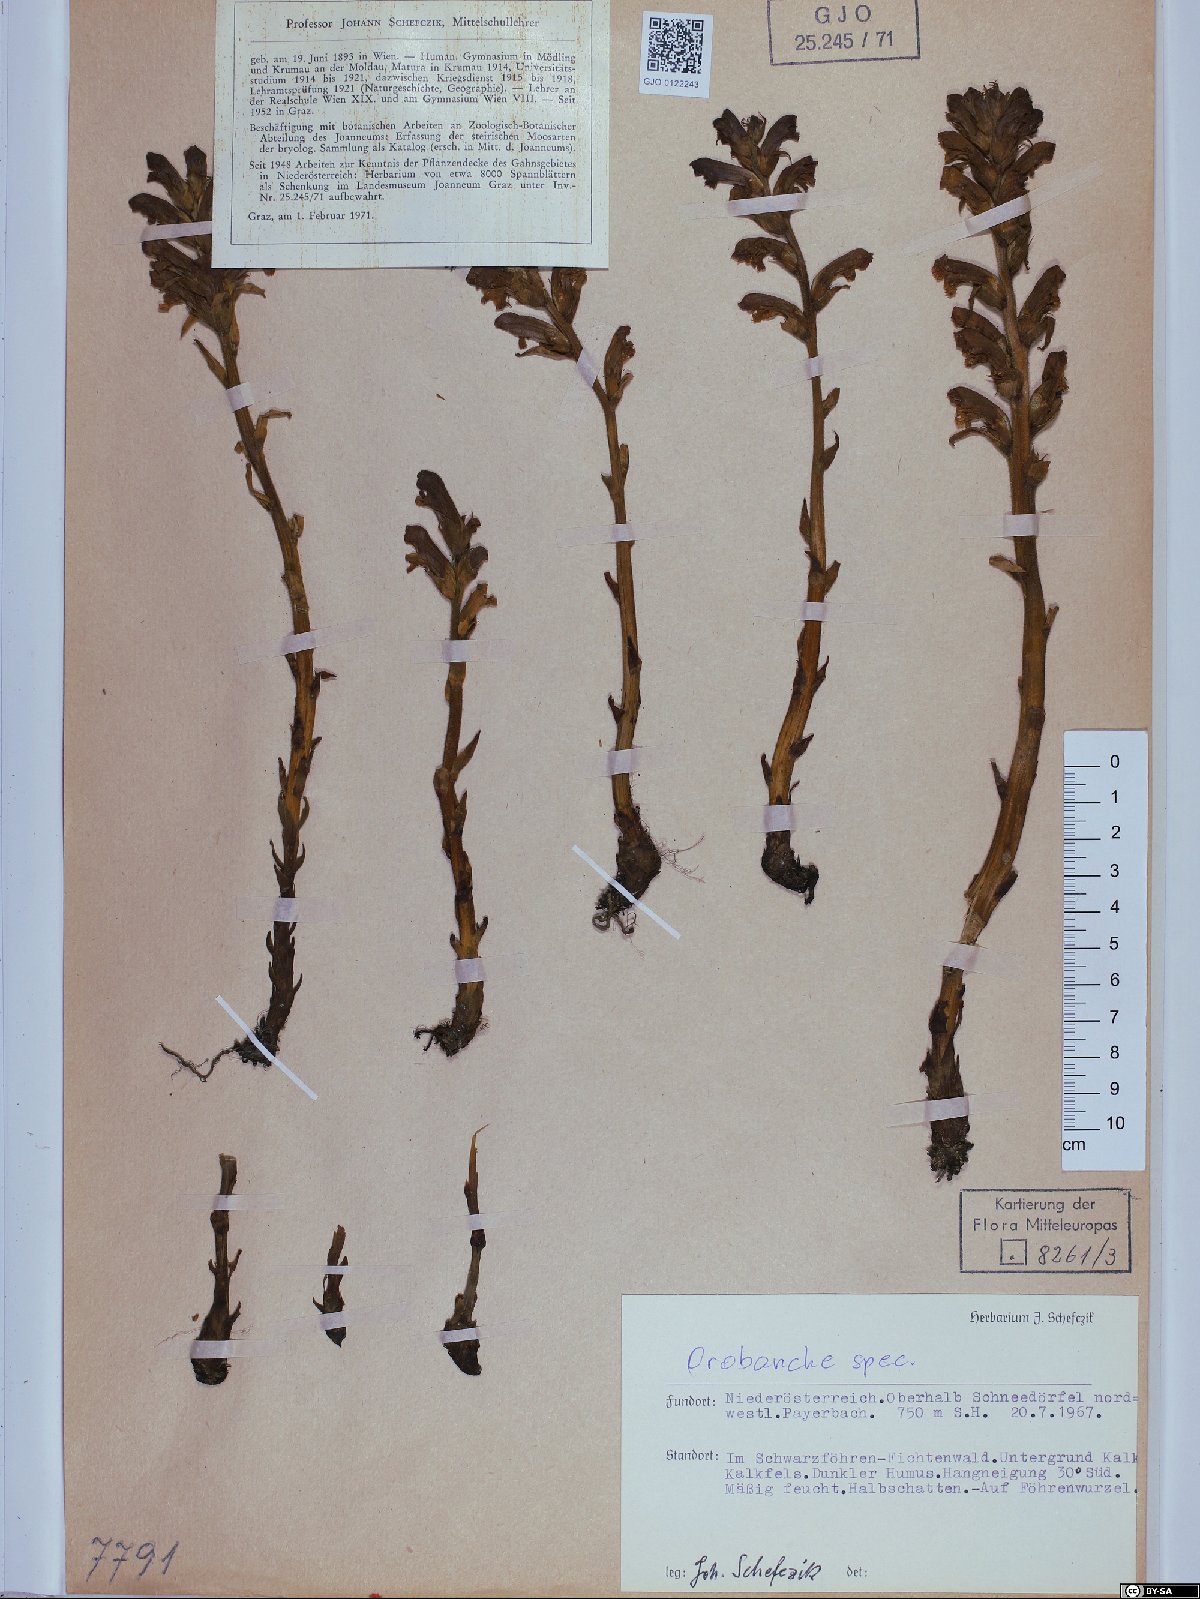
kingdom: Plantae
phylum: Tracheophyta
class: Magnoliopsida
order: Lamiales
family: Orobanchaceae
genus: Orobanche
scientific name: Orobanche
